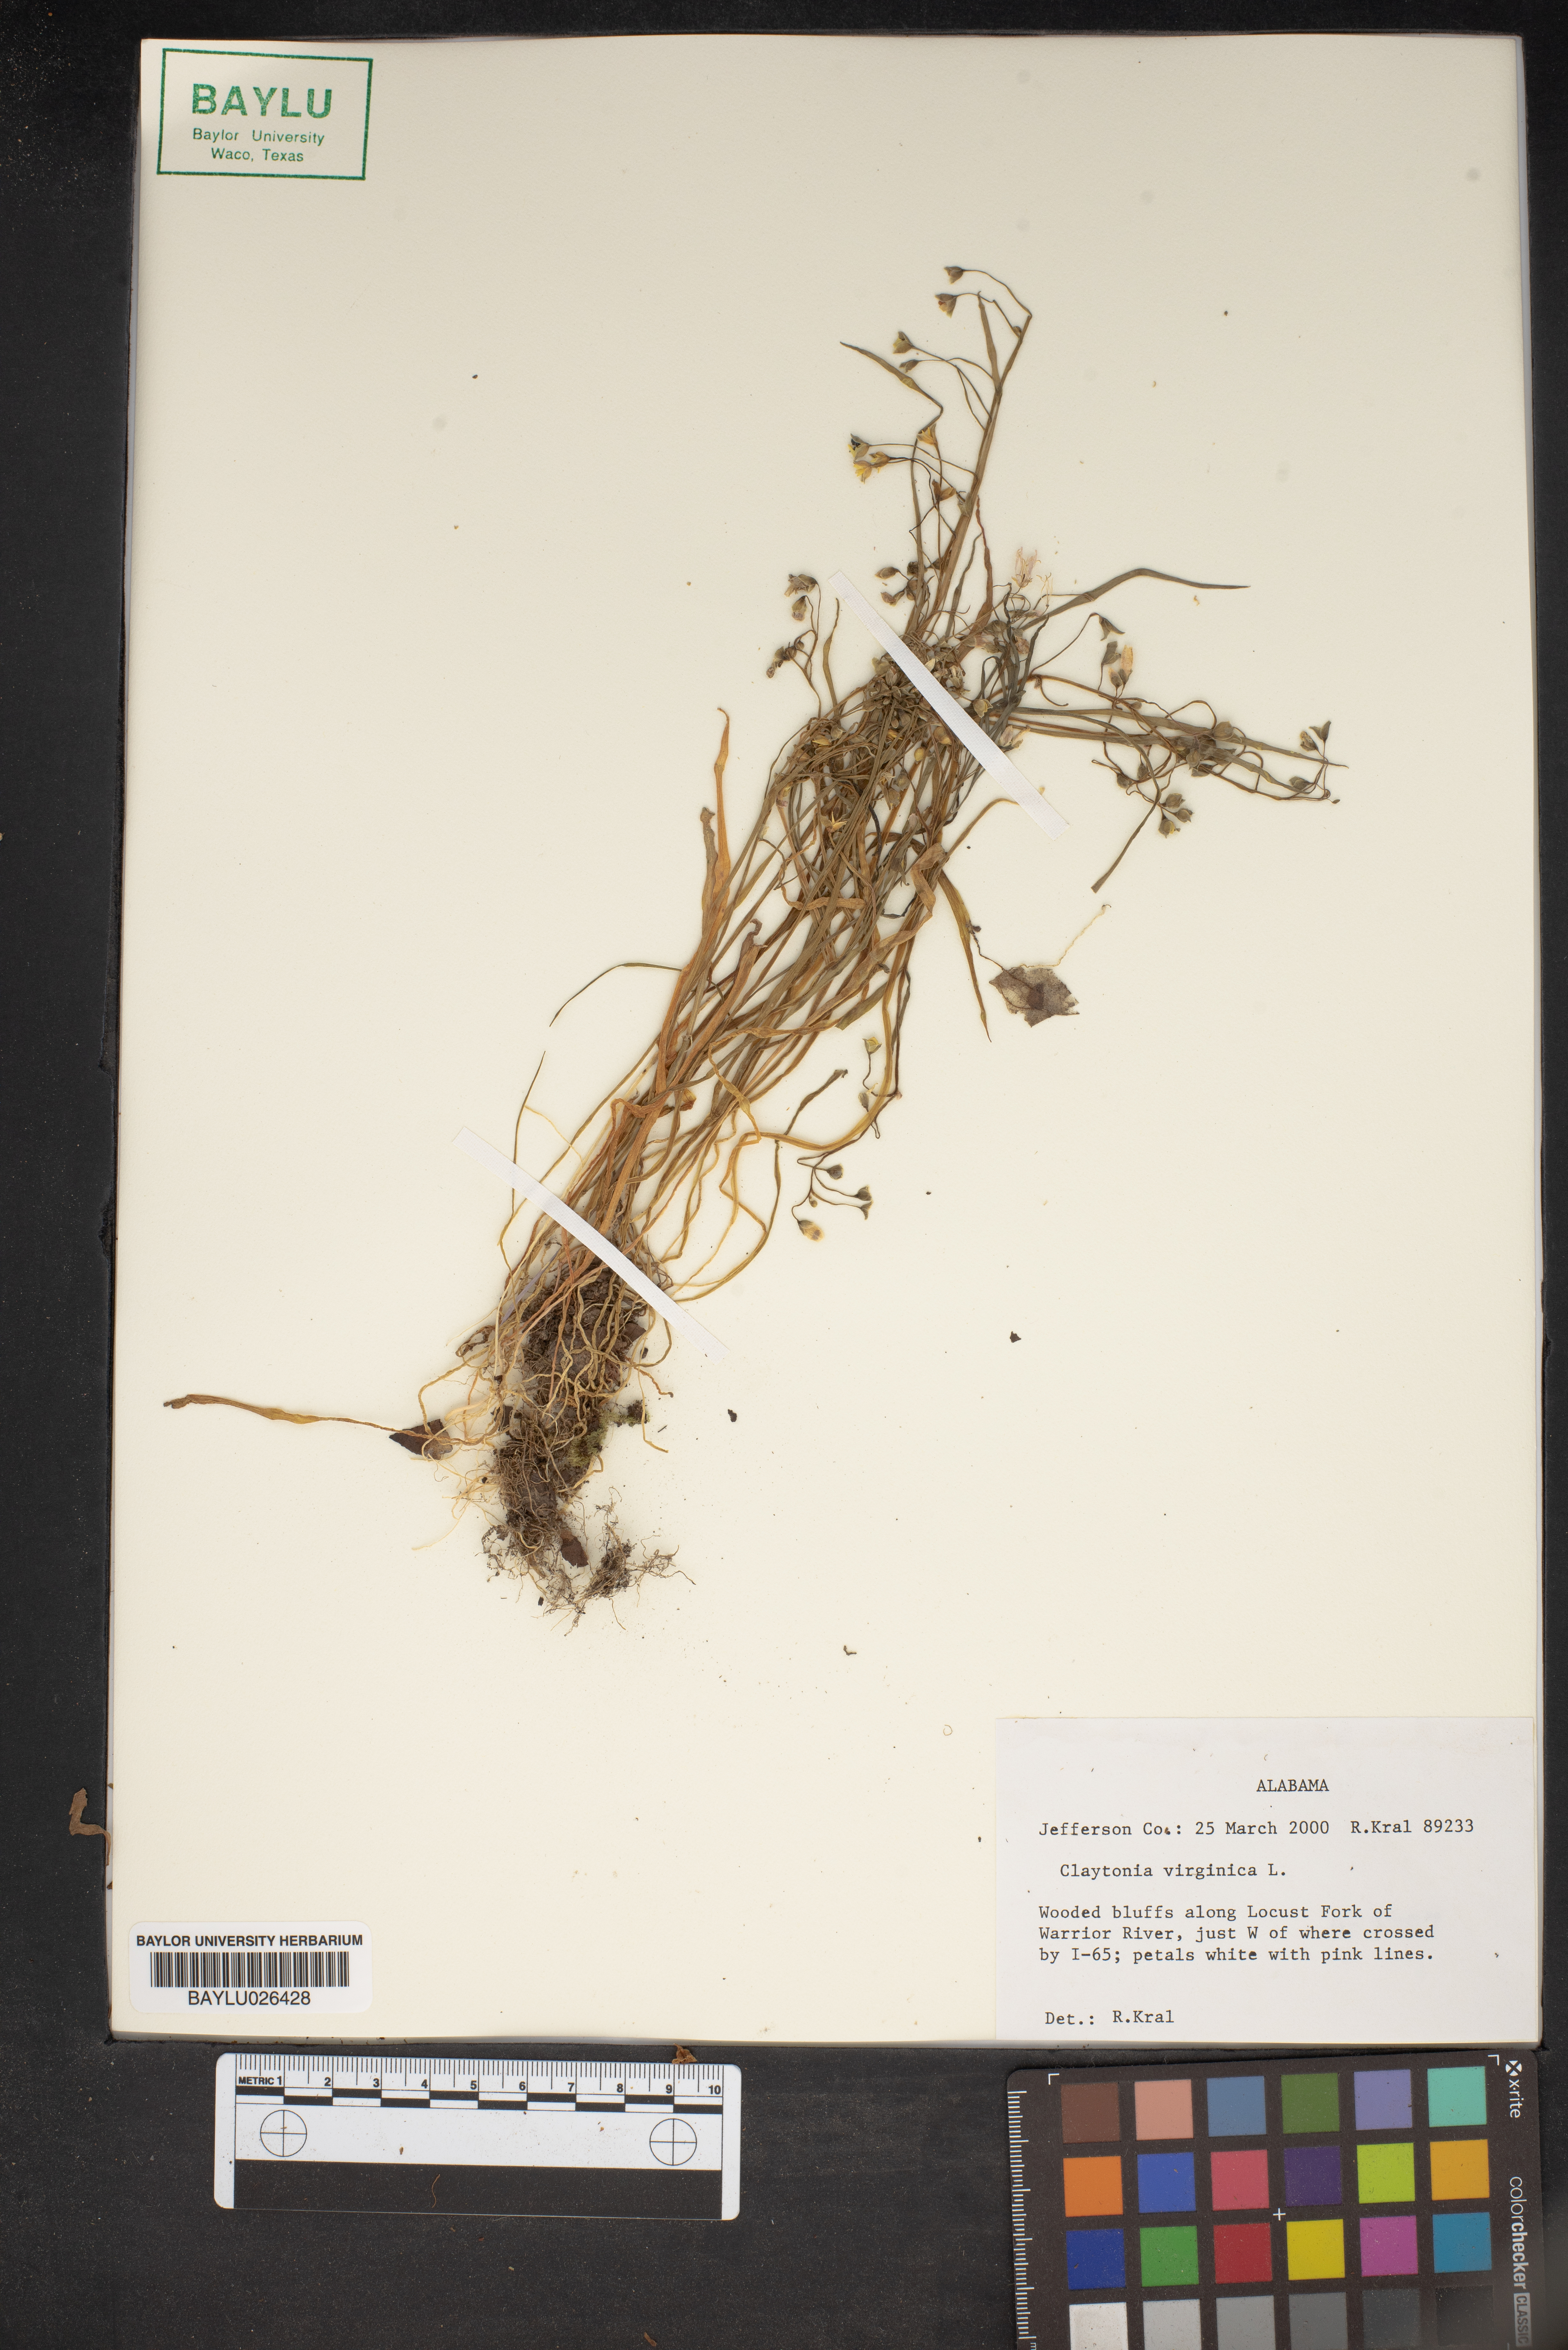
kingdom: Plantae
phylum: Tracheophyta
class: Magnoliopsida
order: Caryophyllales
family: Montiaceae
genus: Claytonia
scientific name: Claytonia virginica
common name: Virginia springbeauty
